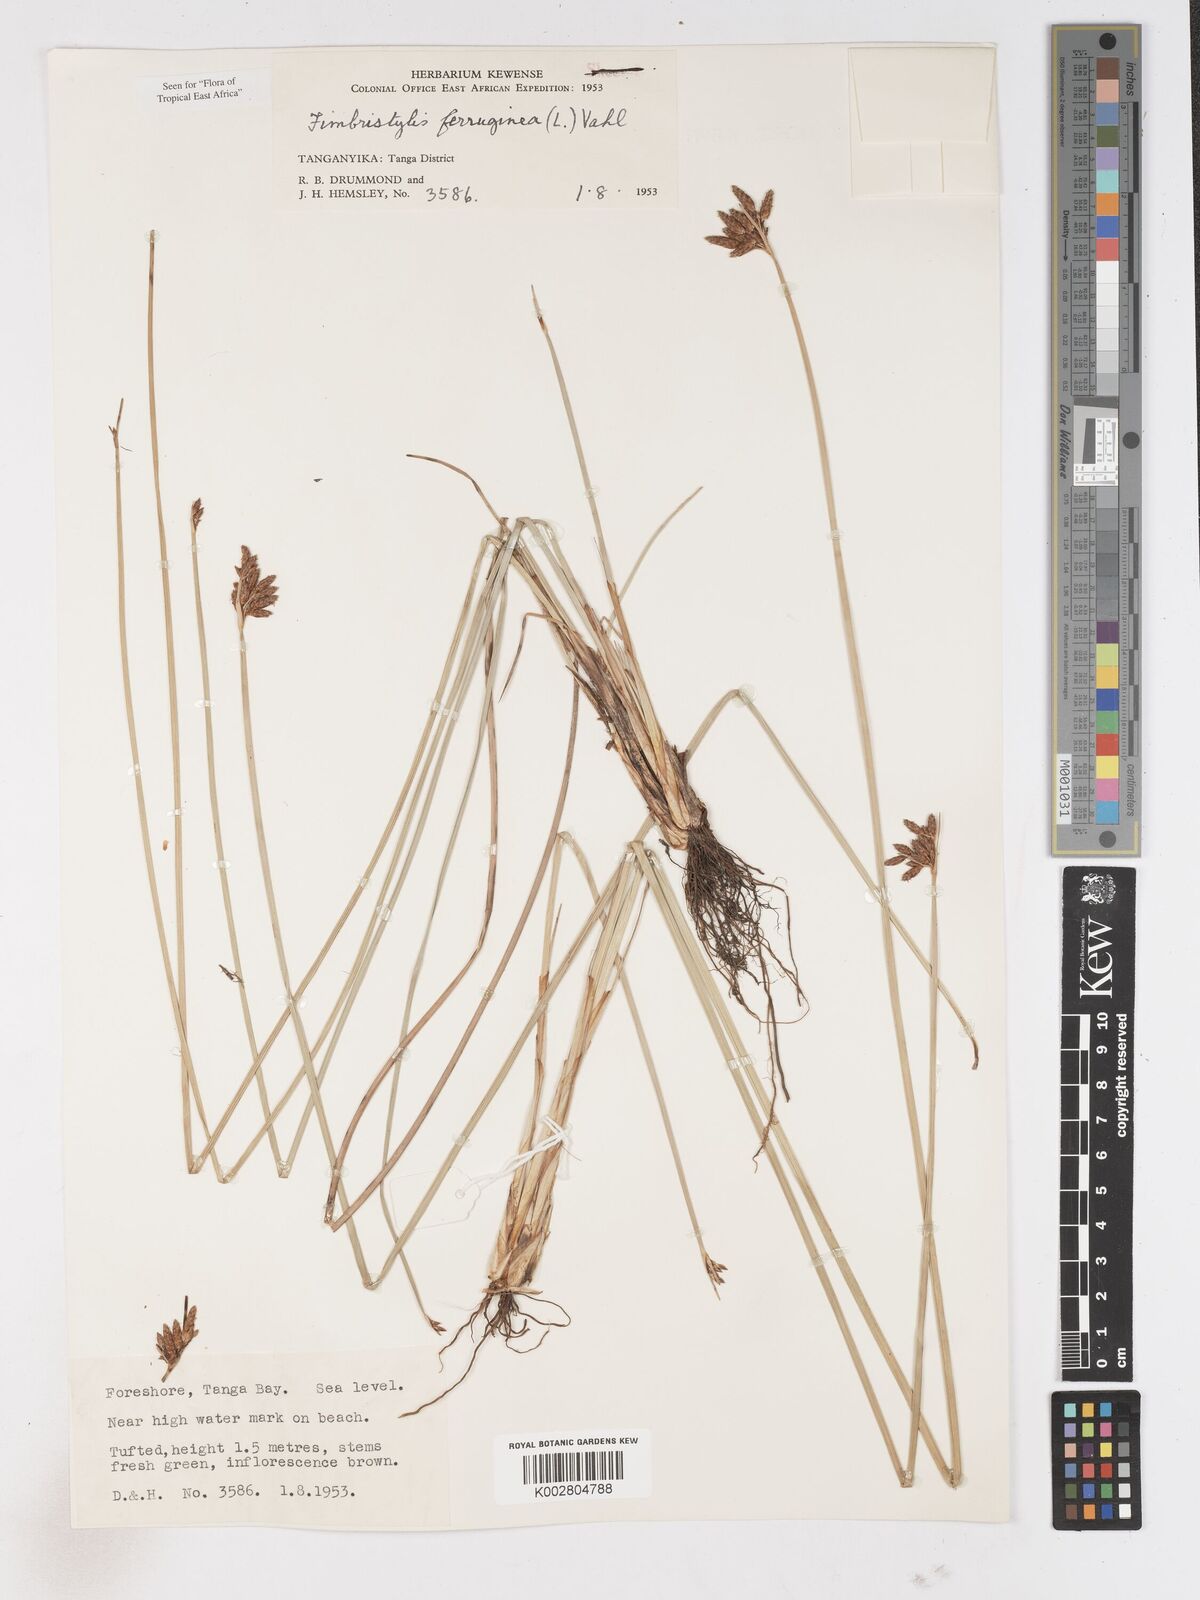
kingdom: Plantae
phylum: Tracheophyta
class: Liliopsida
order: Poales
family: Cyperaceae
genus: Fimbristylis
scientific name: Fimbristylis ferruginea
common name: West indian fimbry
